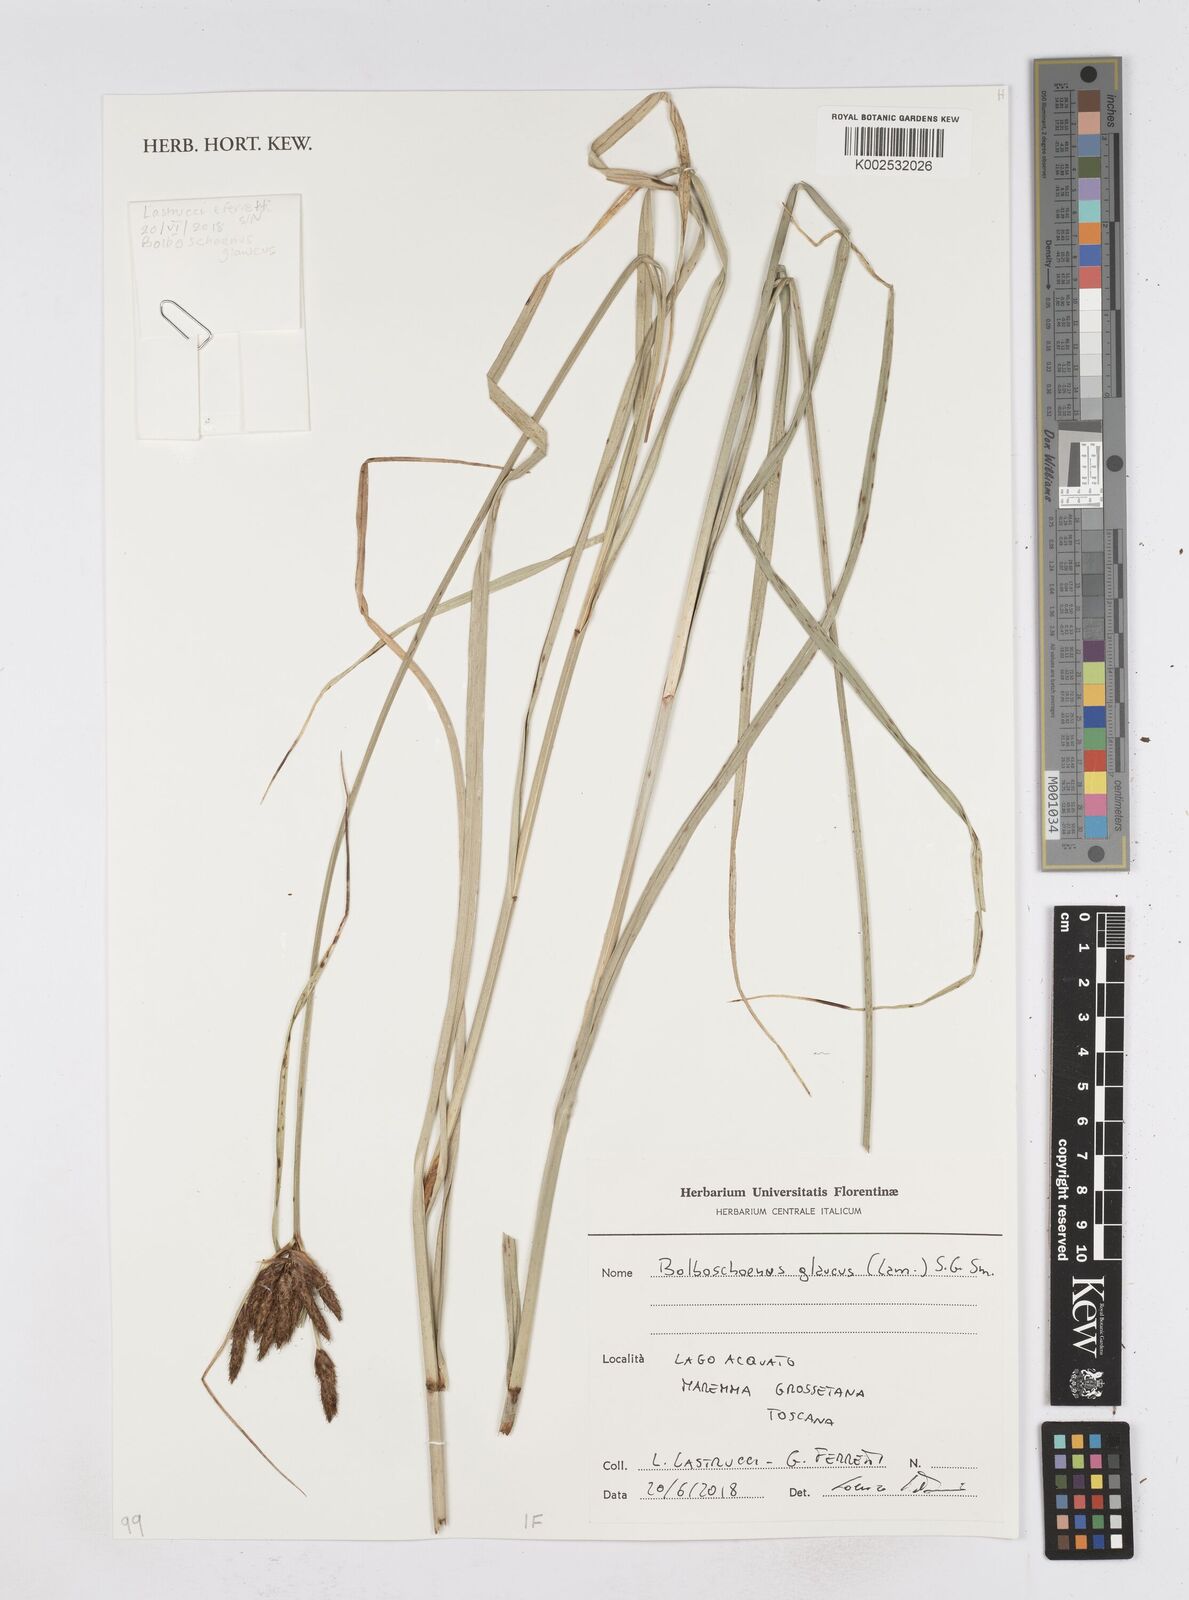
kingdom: Plantae
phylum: Tracheophyta
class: Liliopsida
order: Poales
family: Cyperaceae
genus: Bolboschoenus
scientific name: Bolboschoenus glaucus
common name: Tuberous bulrush
